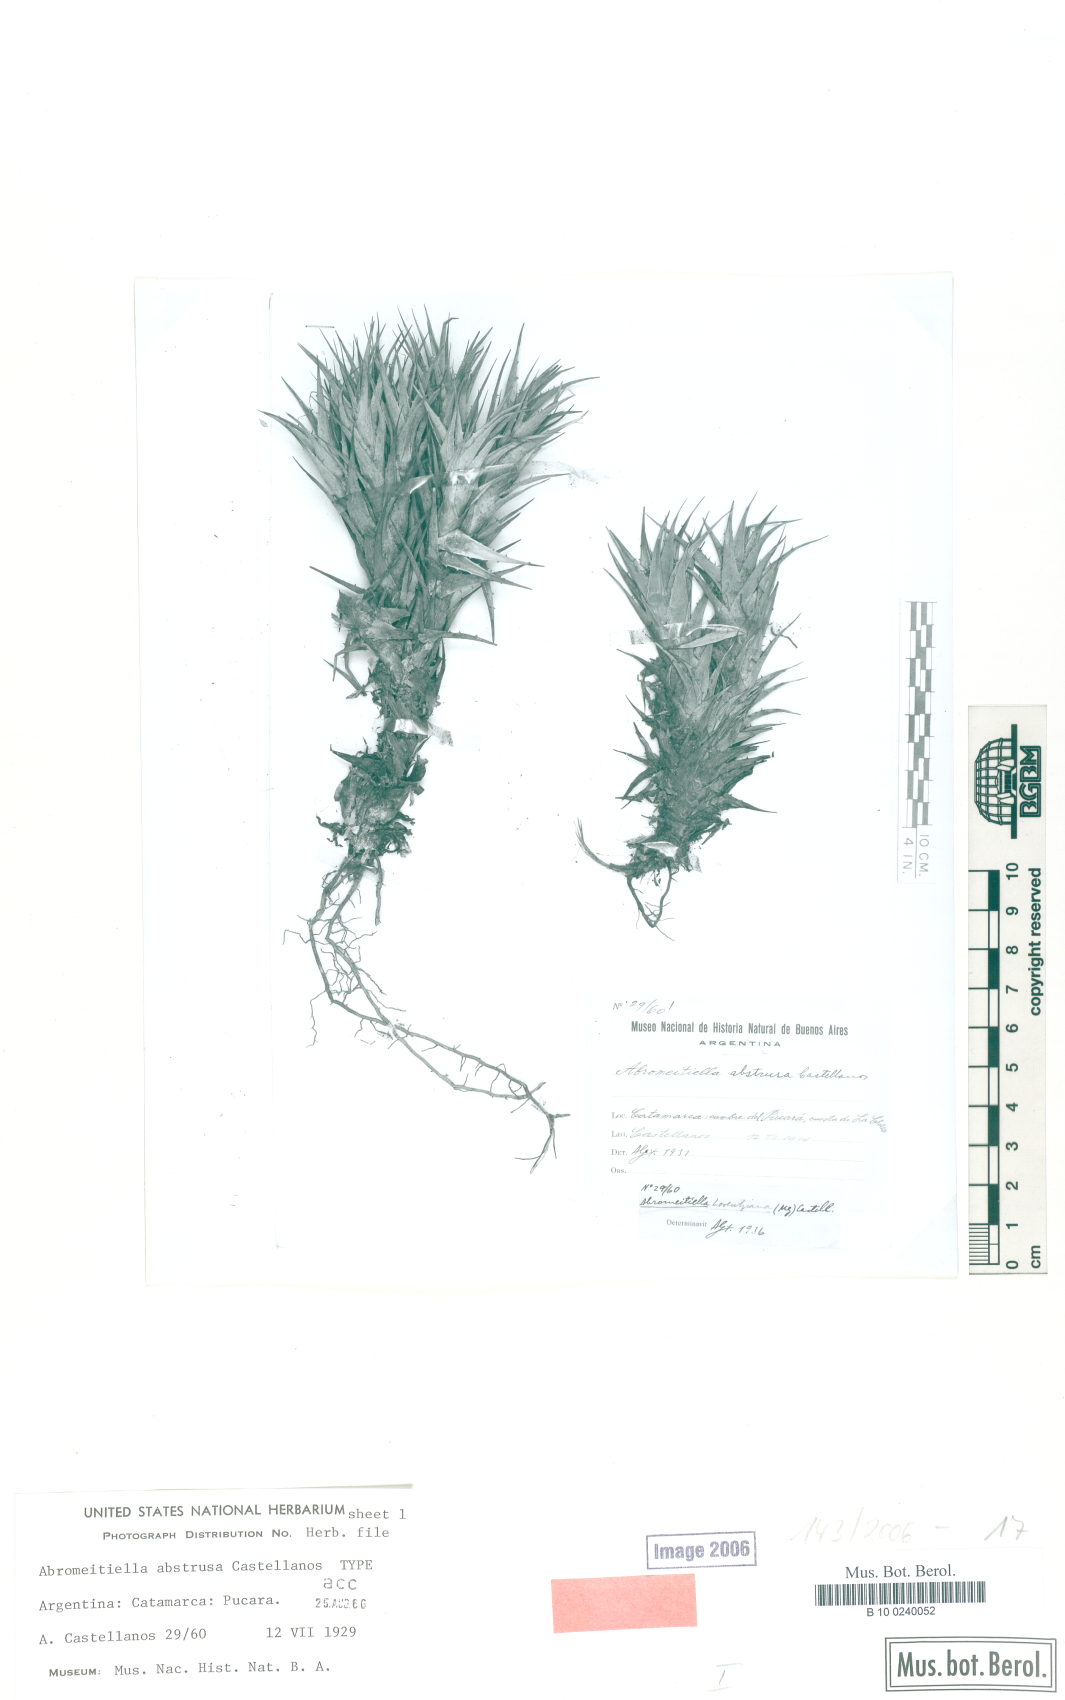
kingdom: Plantae
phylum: Tracheophyta
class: Liliopsida
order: Poales
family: Bromeliaceae
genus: Deuterocohnia
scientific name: Deuterocohnia abstrusa
